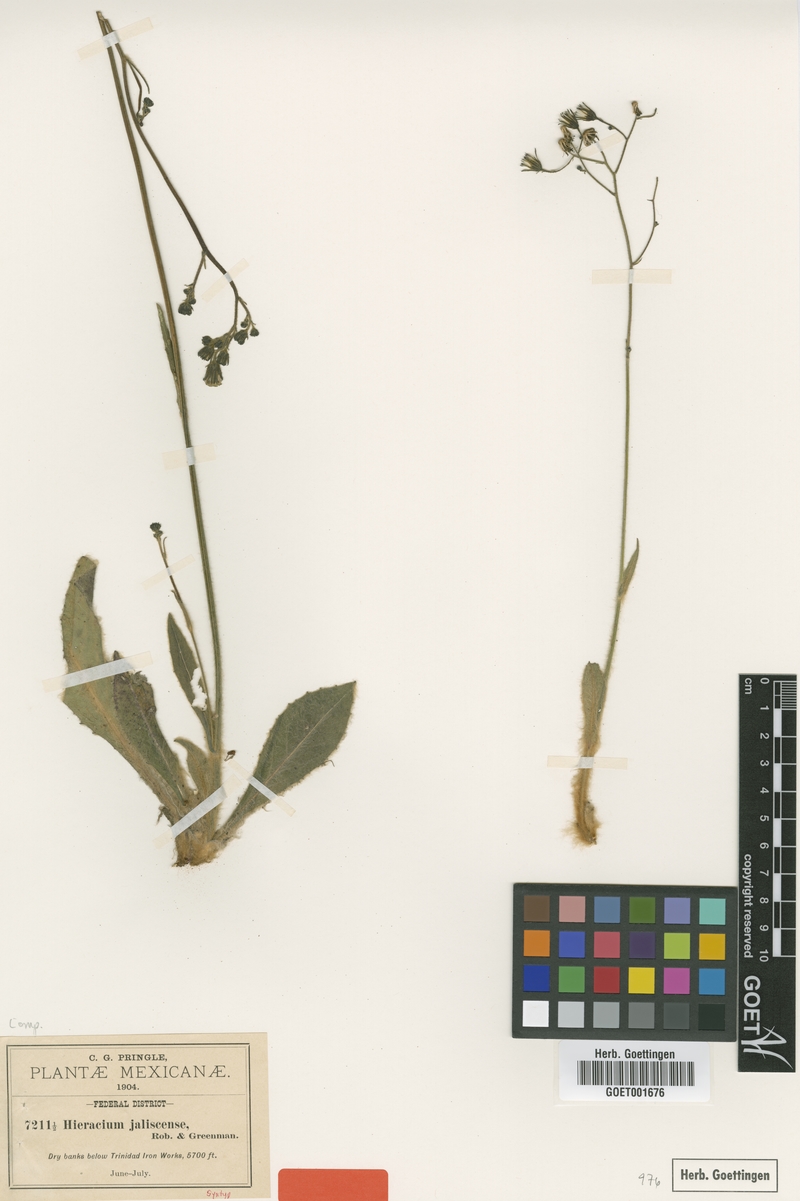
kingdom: Plantae
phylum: Tracheophyta
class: Magnoliopsida
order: Asterales
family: Asteraceae
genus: Hieracium
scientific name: Hieracium pringlei
